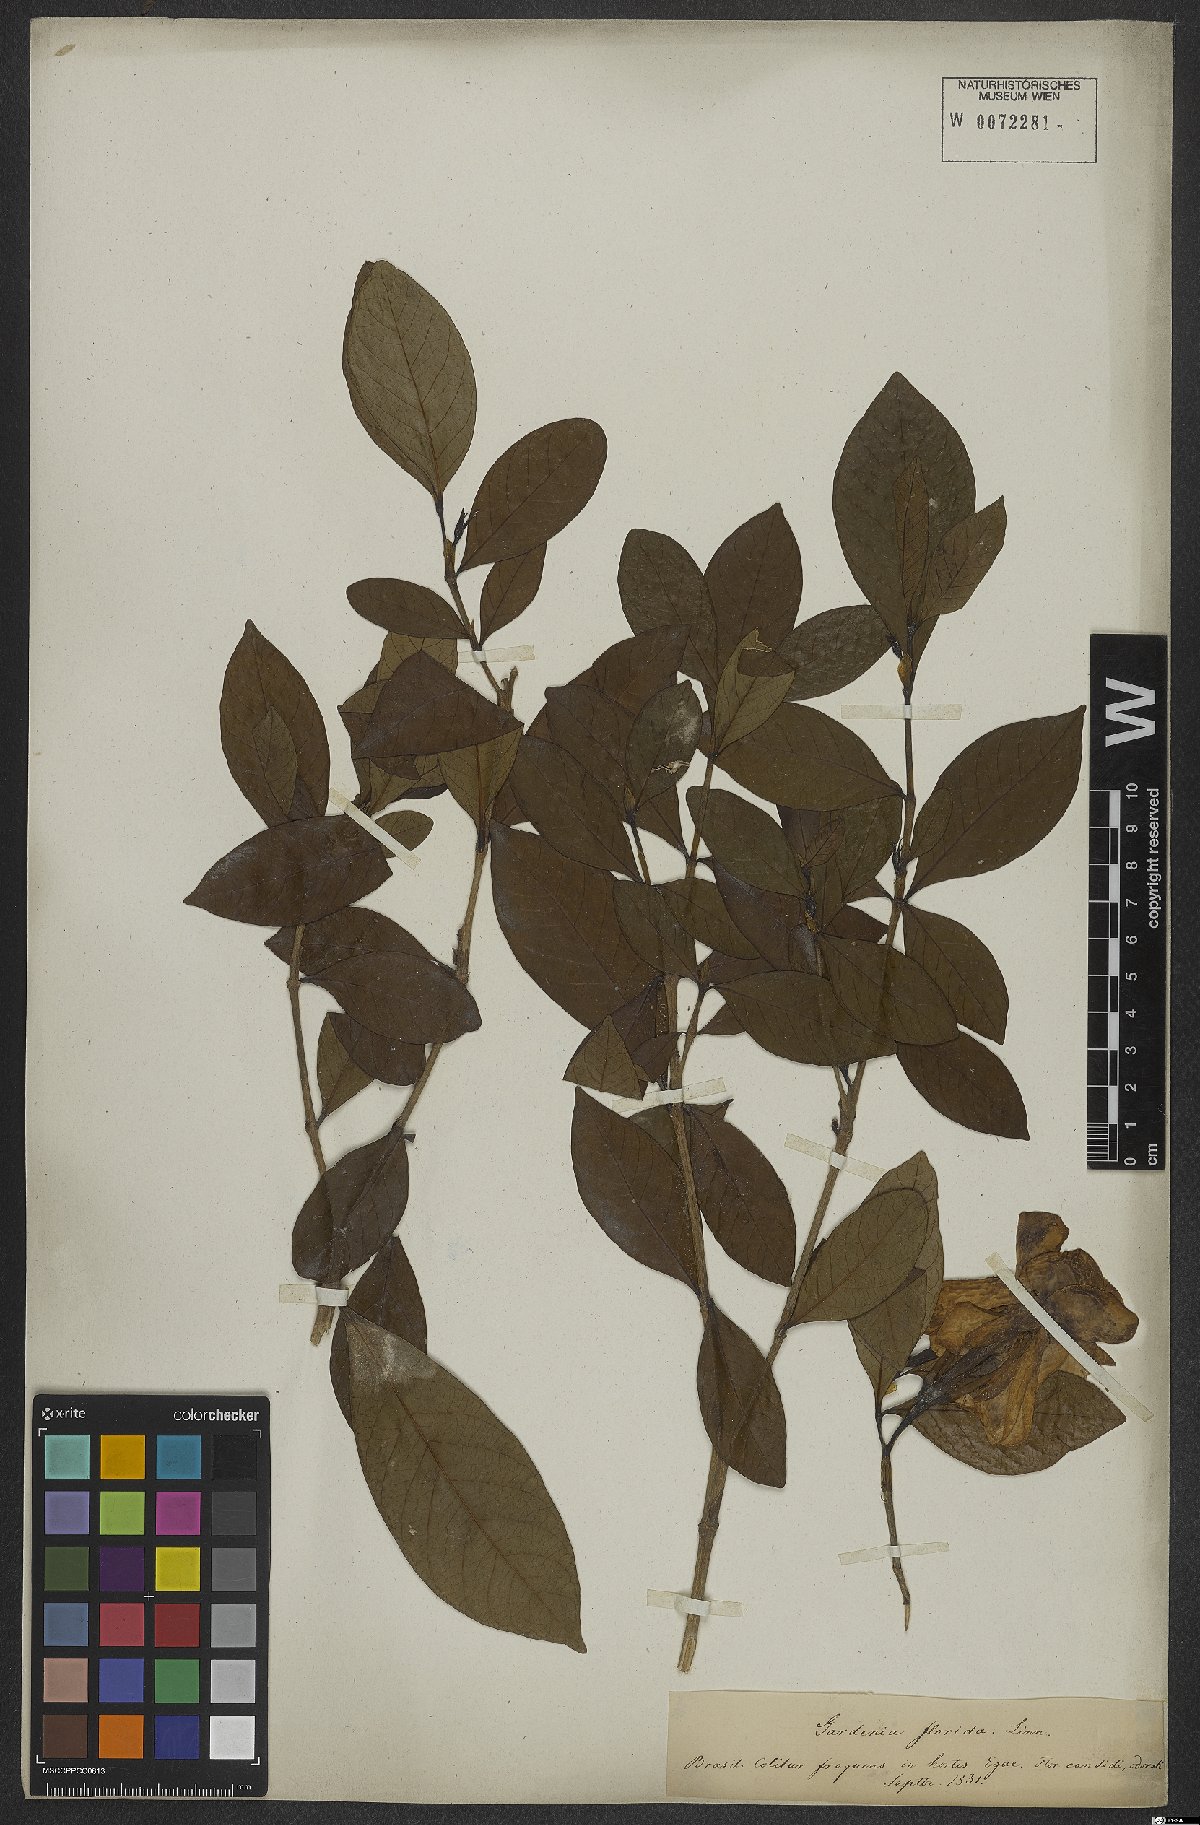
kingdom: Plantae
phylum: Tracheophyta
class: Magnoliopsida
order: Gentianales
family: Rubiaceae
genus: Gardenia
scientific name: Gardenia jasminoides
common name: Cape-jasmine
